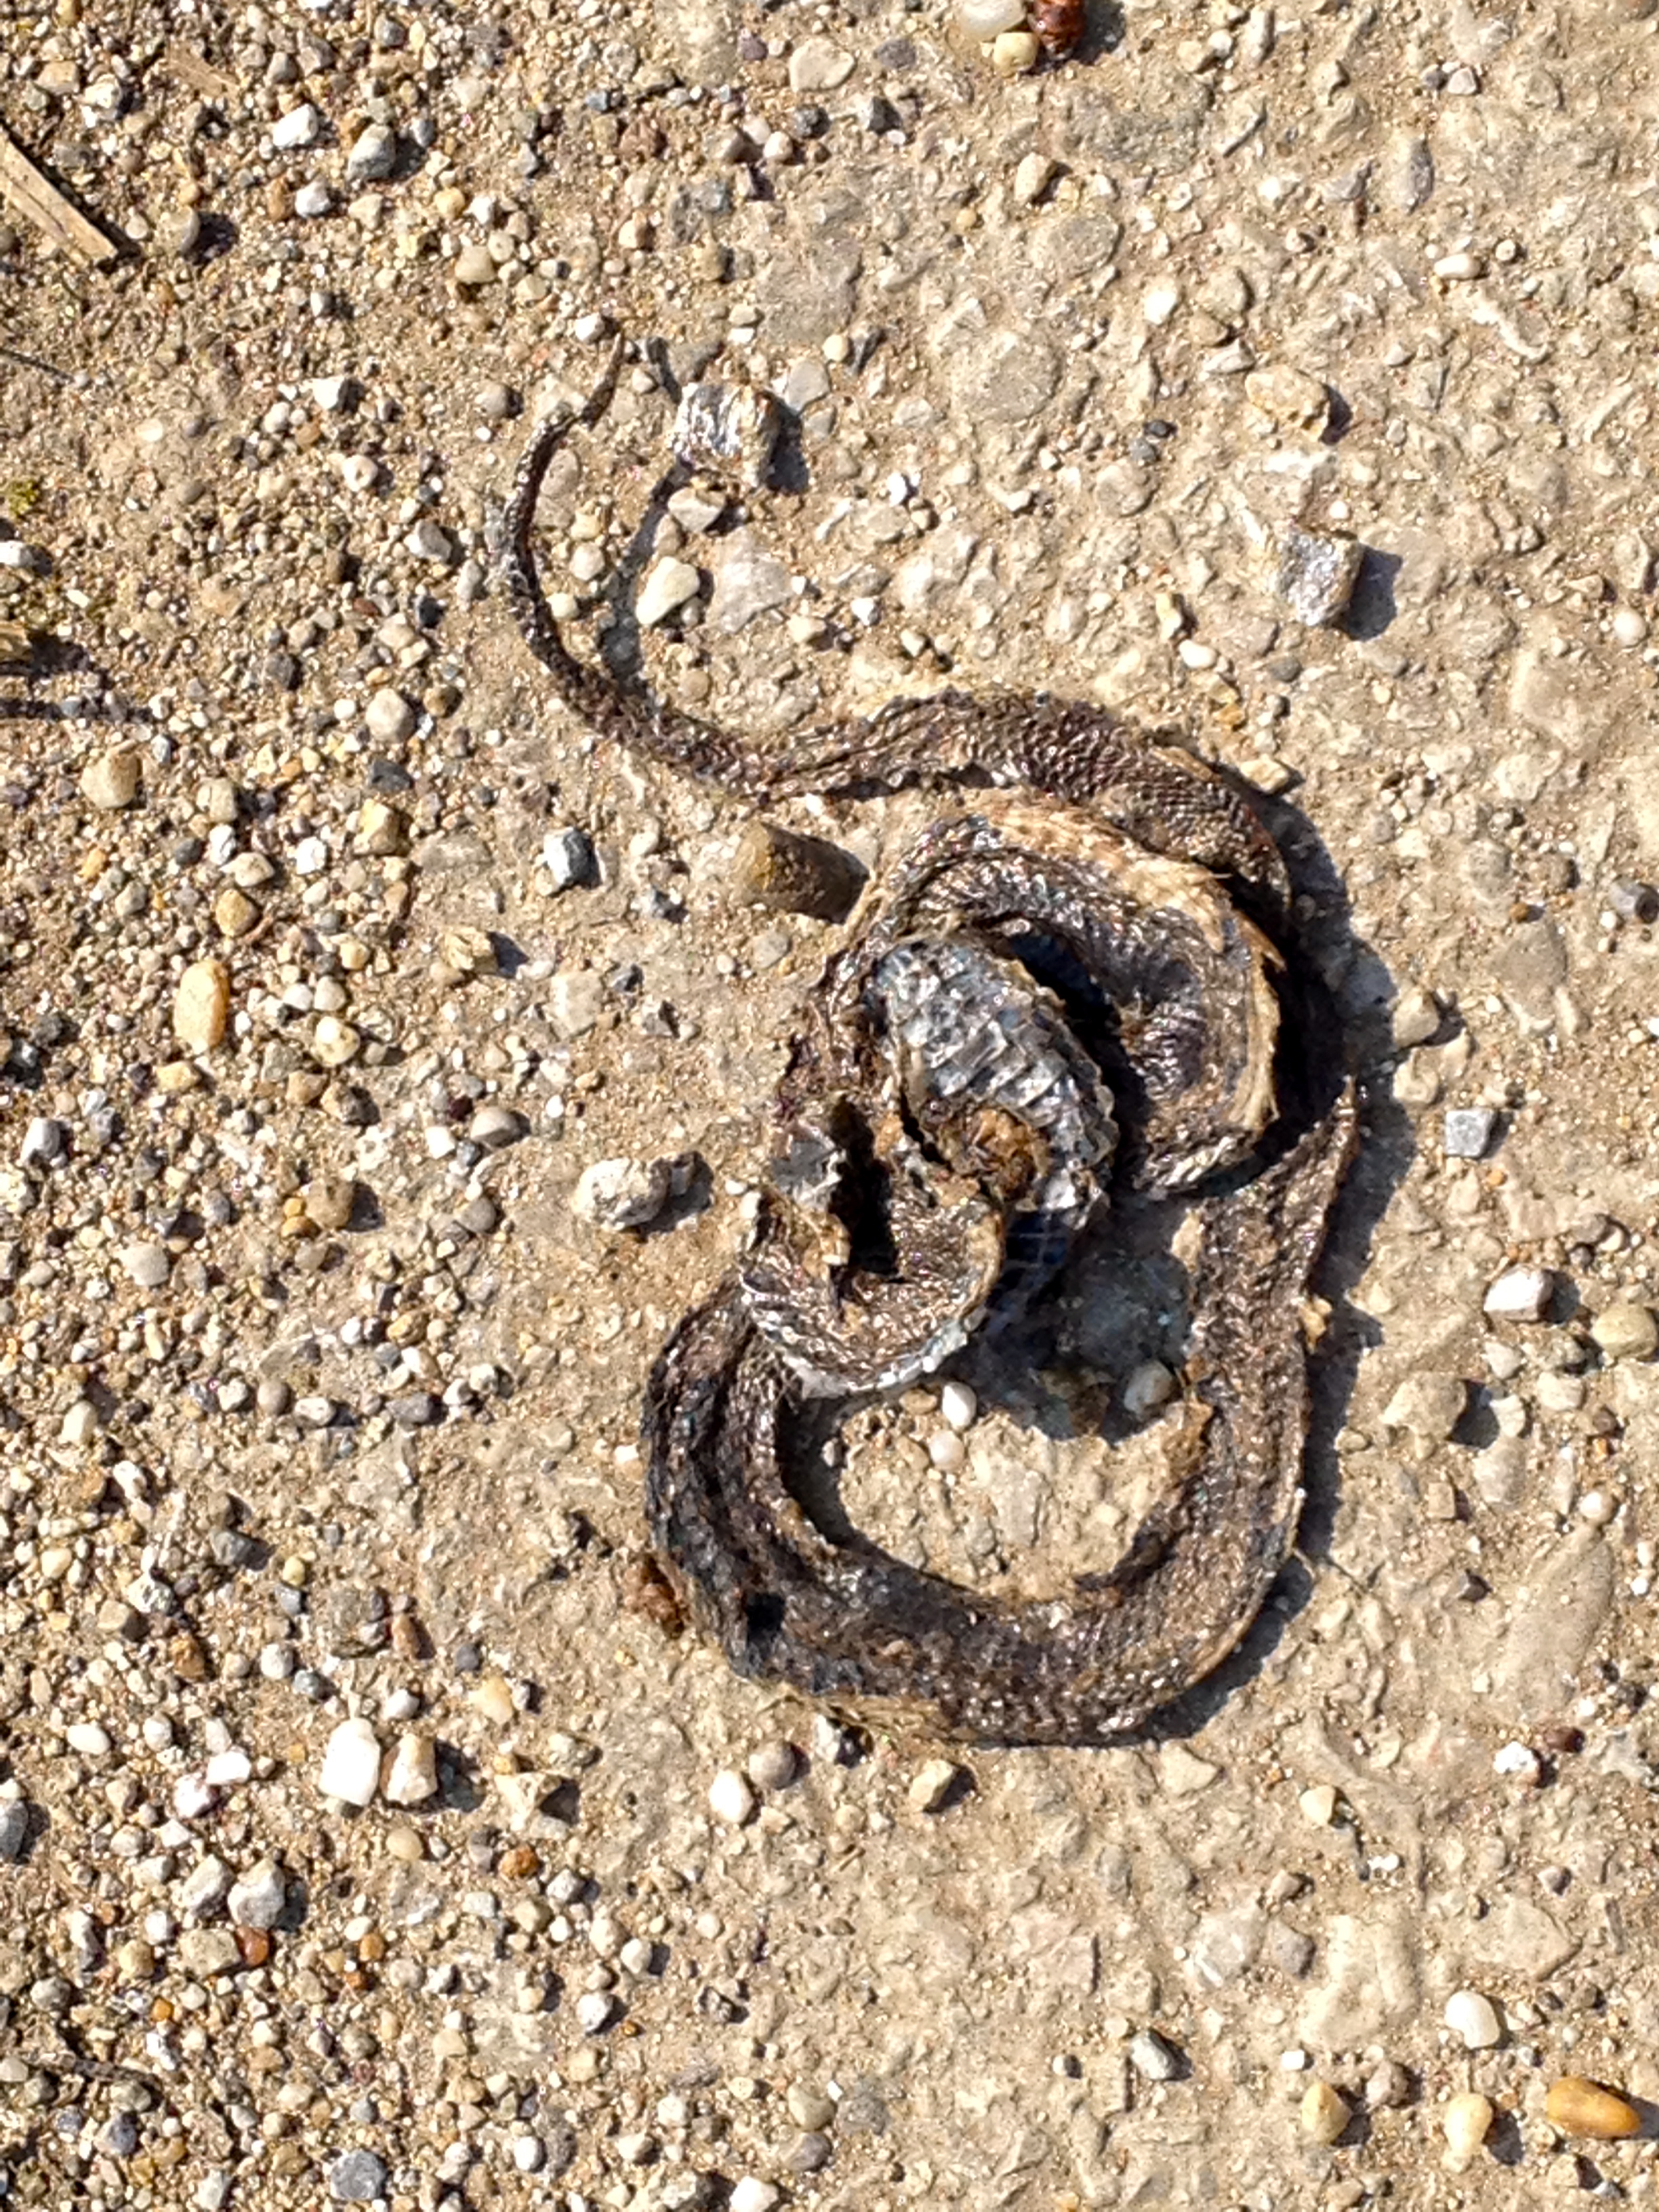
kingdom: Animalia
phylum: Chordata
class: Squamata
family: Colubridae
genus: Natrix
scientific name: Natrix natrix
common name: Grass snake
